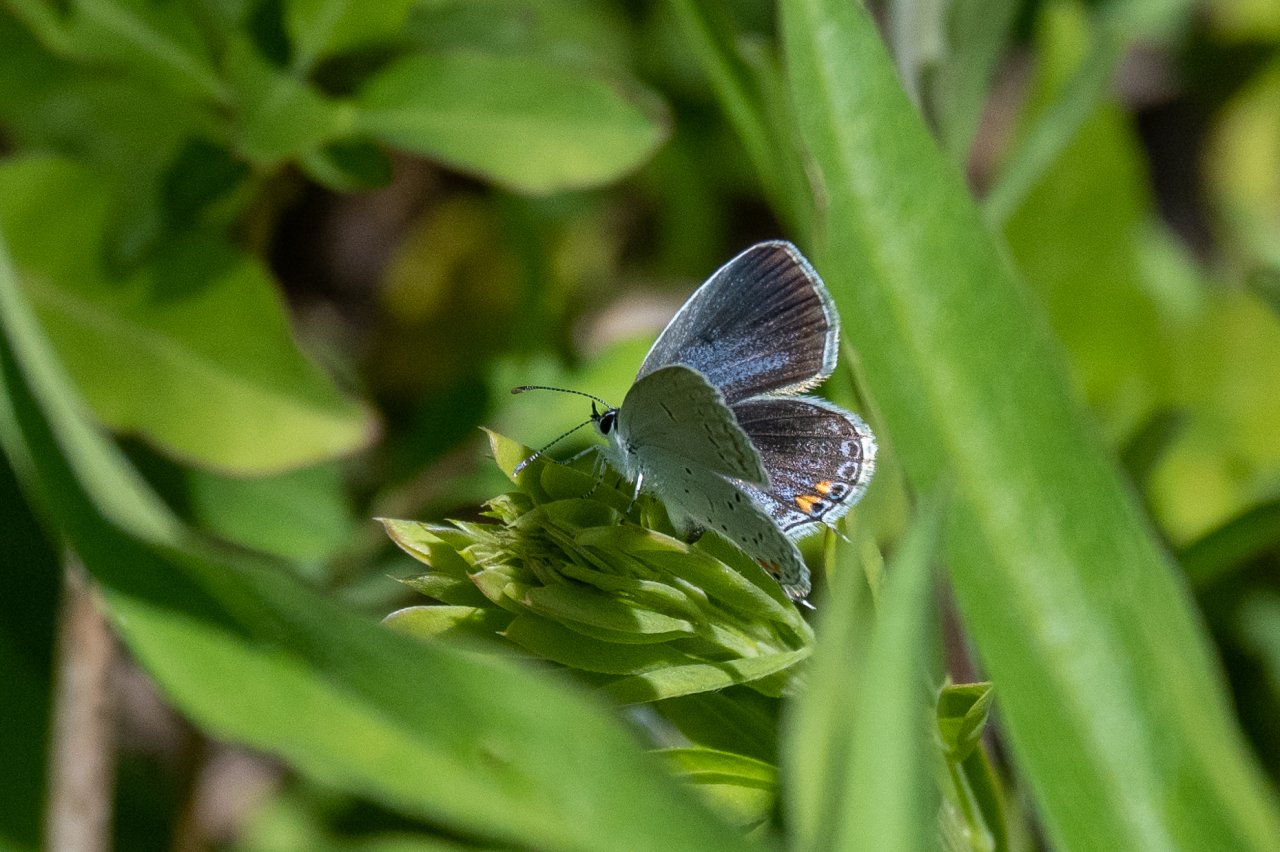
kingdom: Animalia
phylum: Arthropoda
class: Insecta
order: Lepidoptera
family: Lycaenidae
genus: Elkalyce
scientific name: Elkalyce comyntas
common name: Eastern Tailed-Blue
